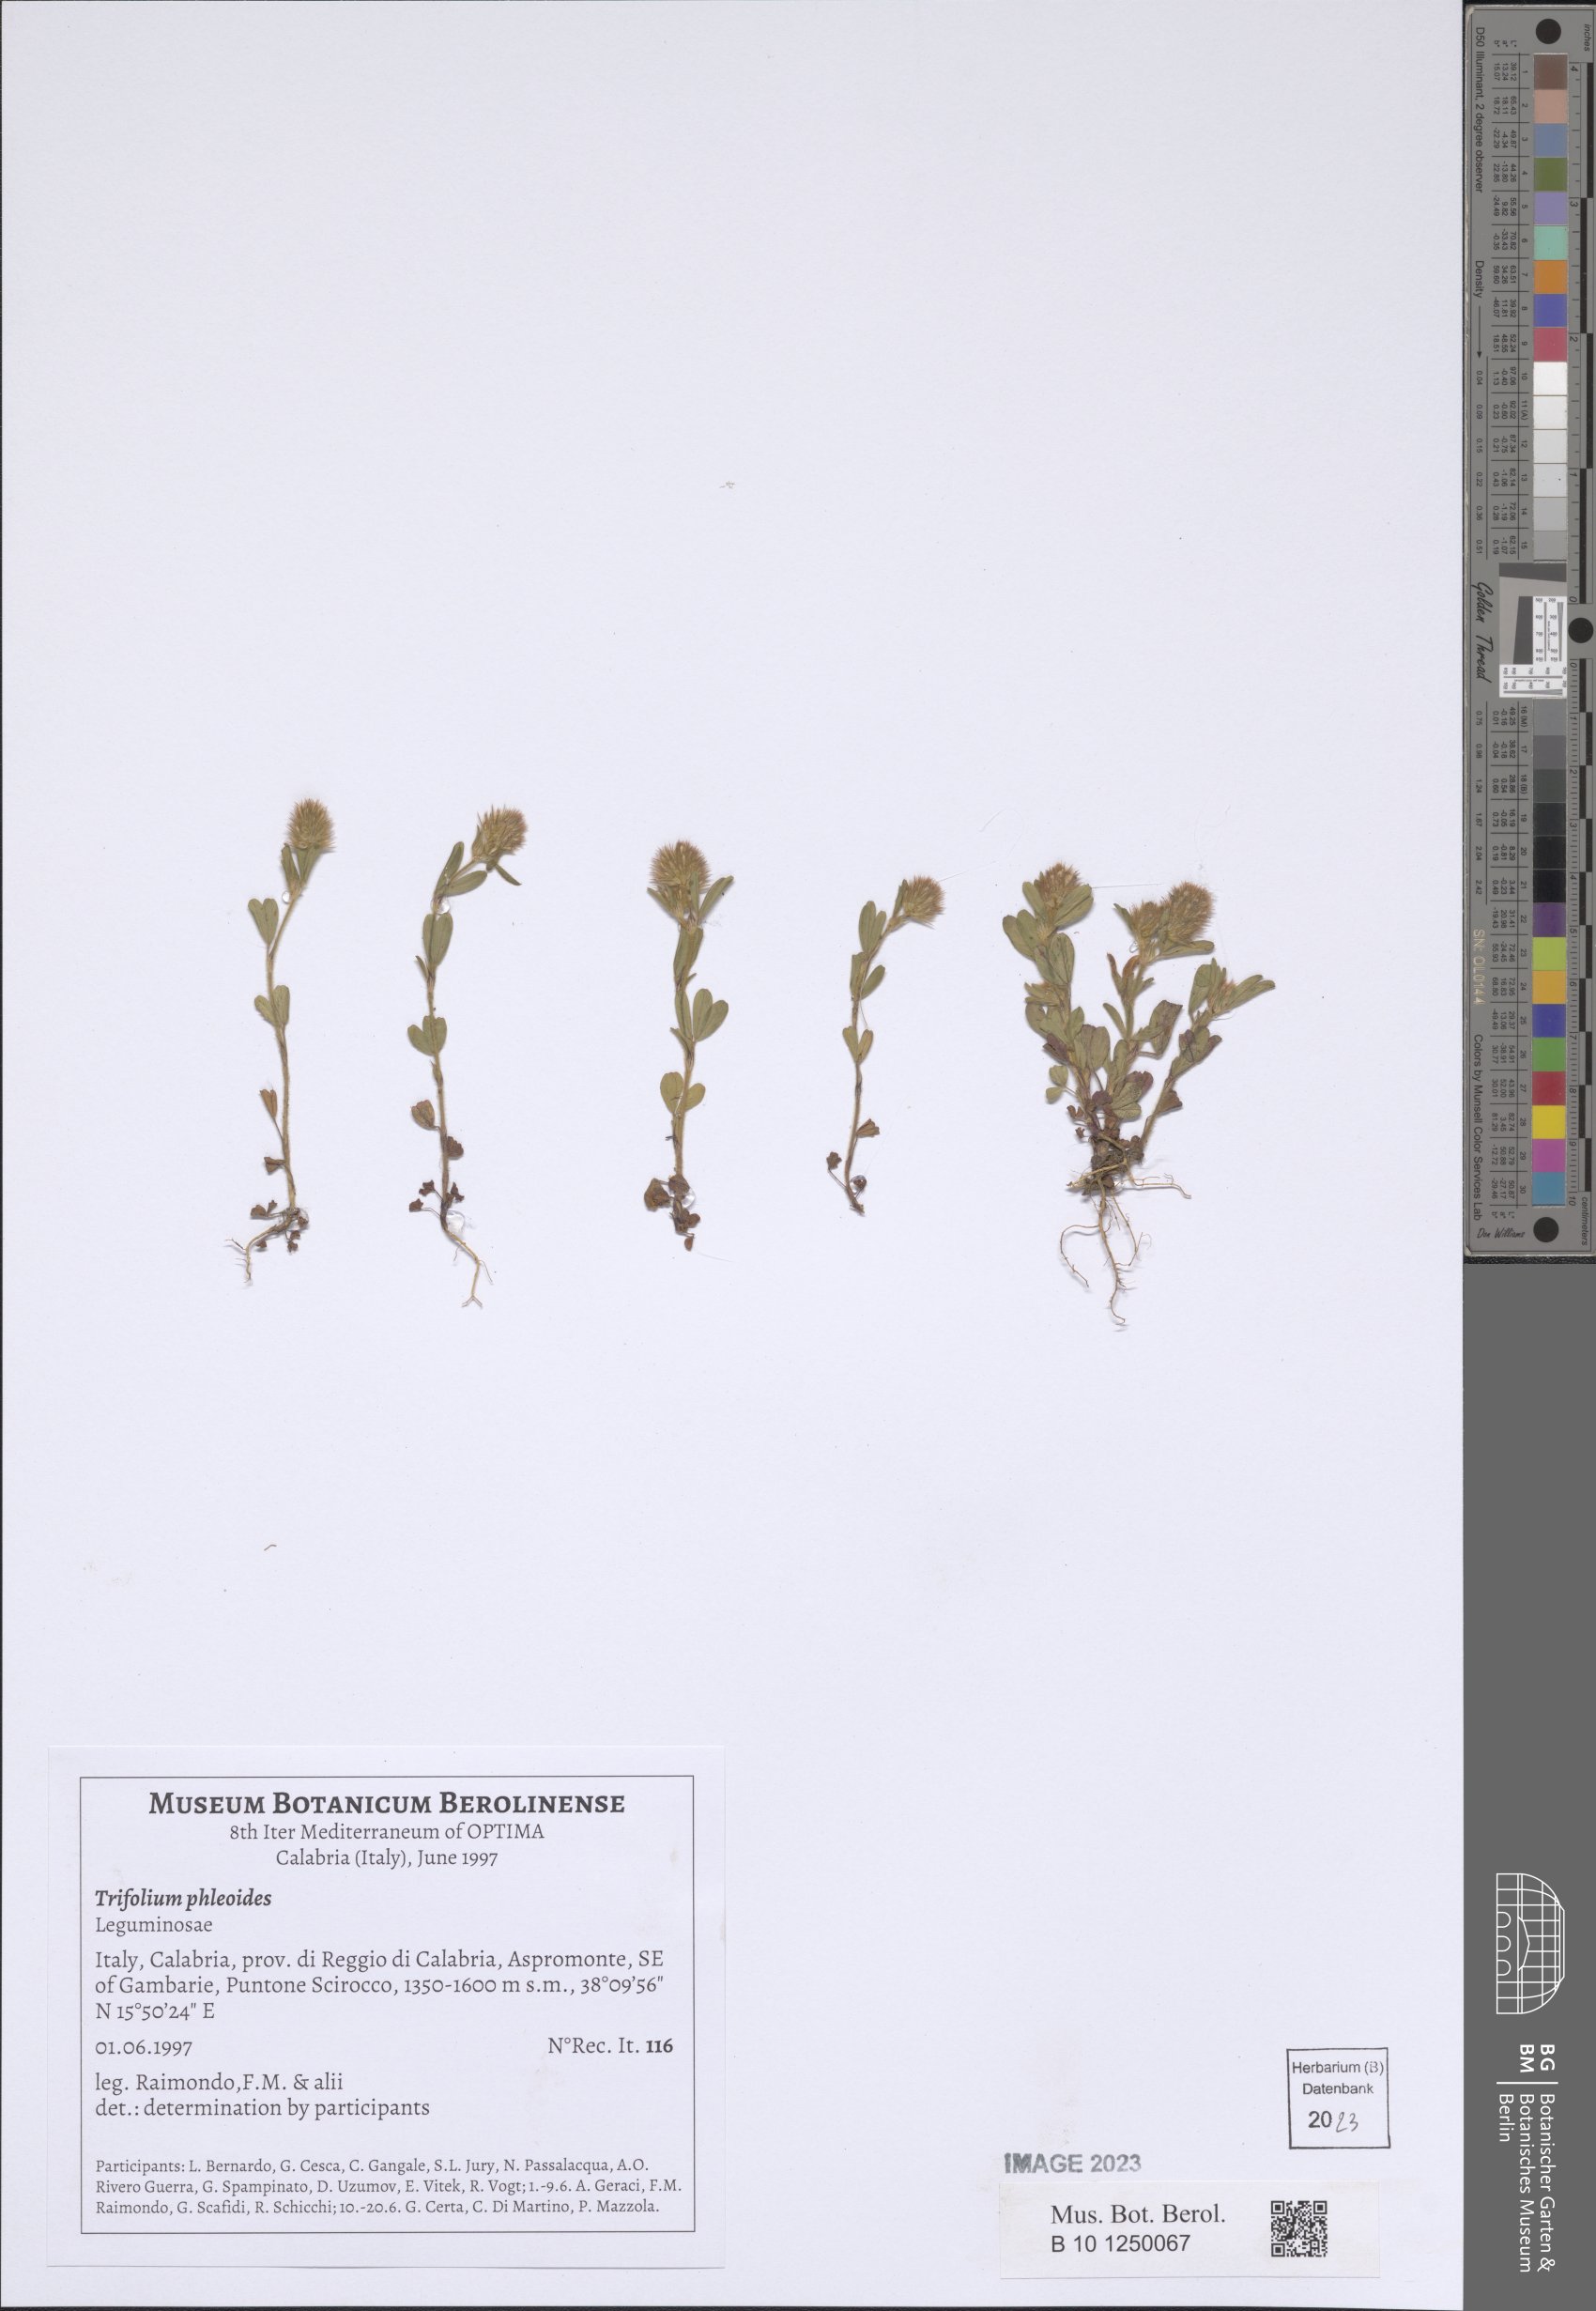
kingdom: Plantae
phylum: Tracheophyta
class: Magnoliopsida
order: Fabales
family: Fabaceae
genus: Trifolium
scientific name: Trifolium phleoides
